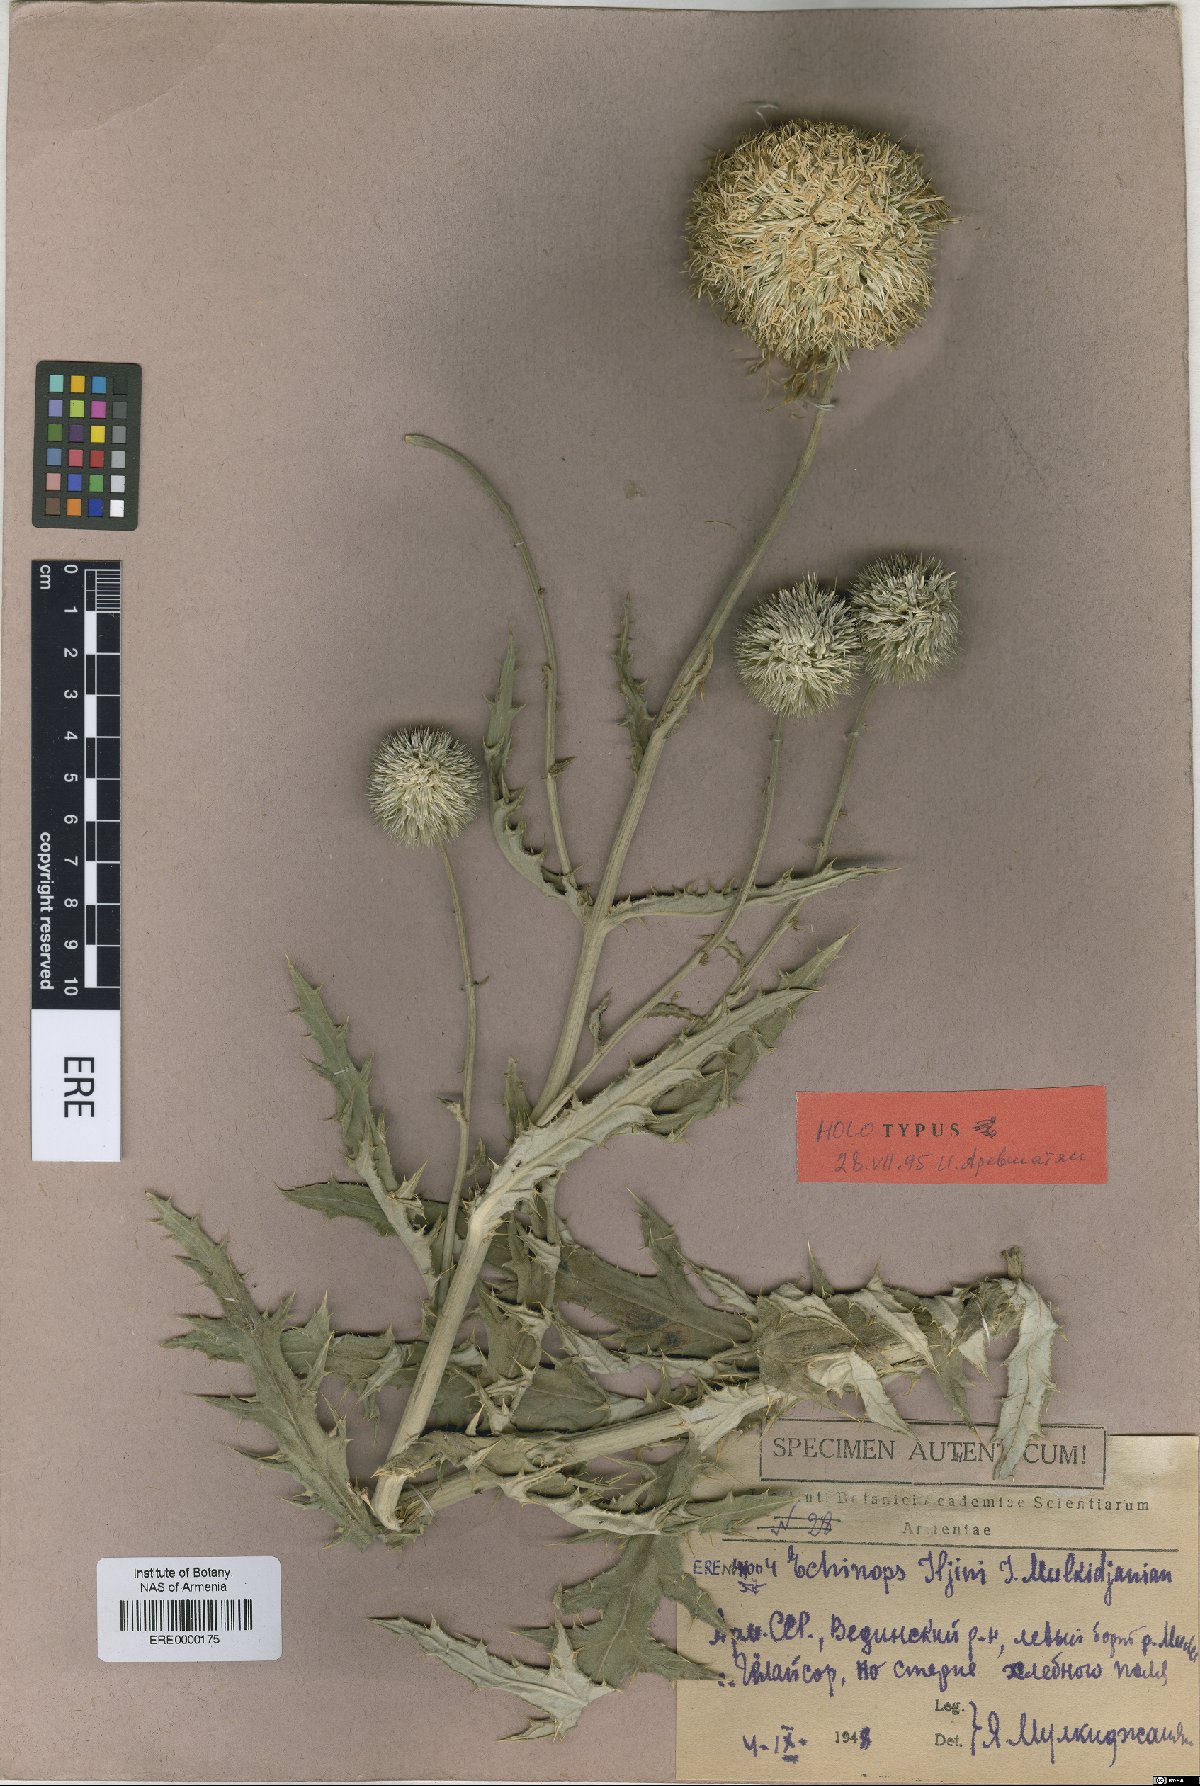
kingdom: Plantae
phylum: Tracheophyta
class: Magnoliopsida
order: Asterales
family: Asteraceae
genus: Echinops
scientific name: Echinops transcaucasicus
